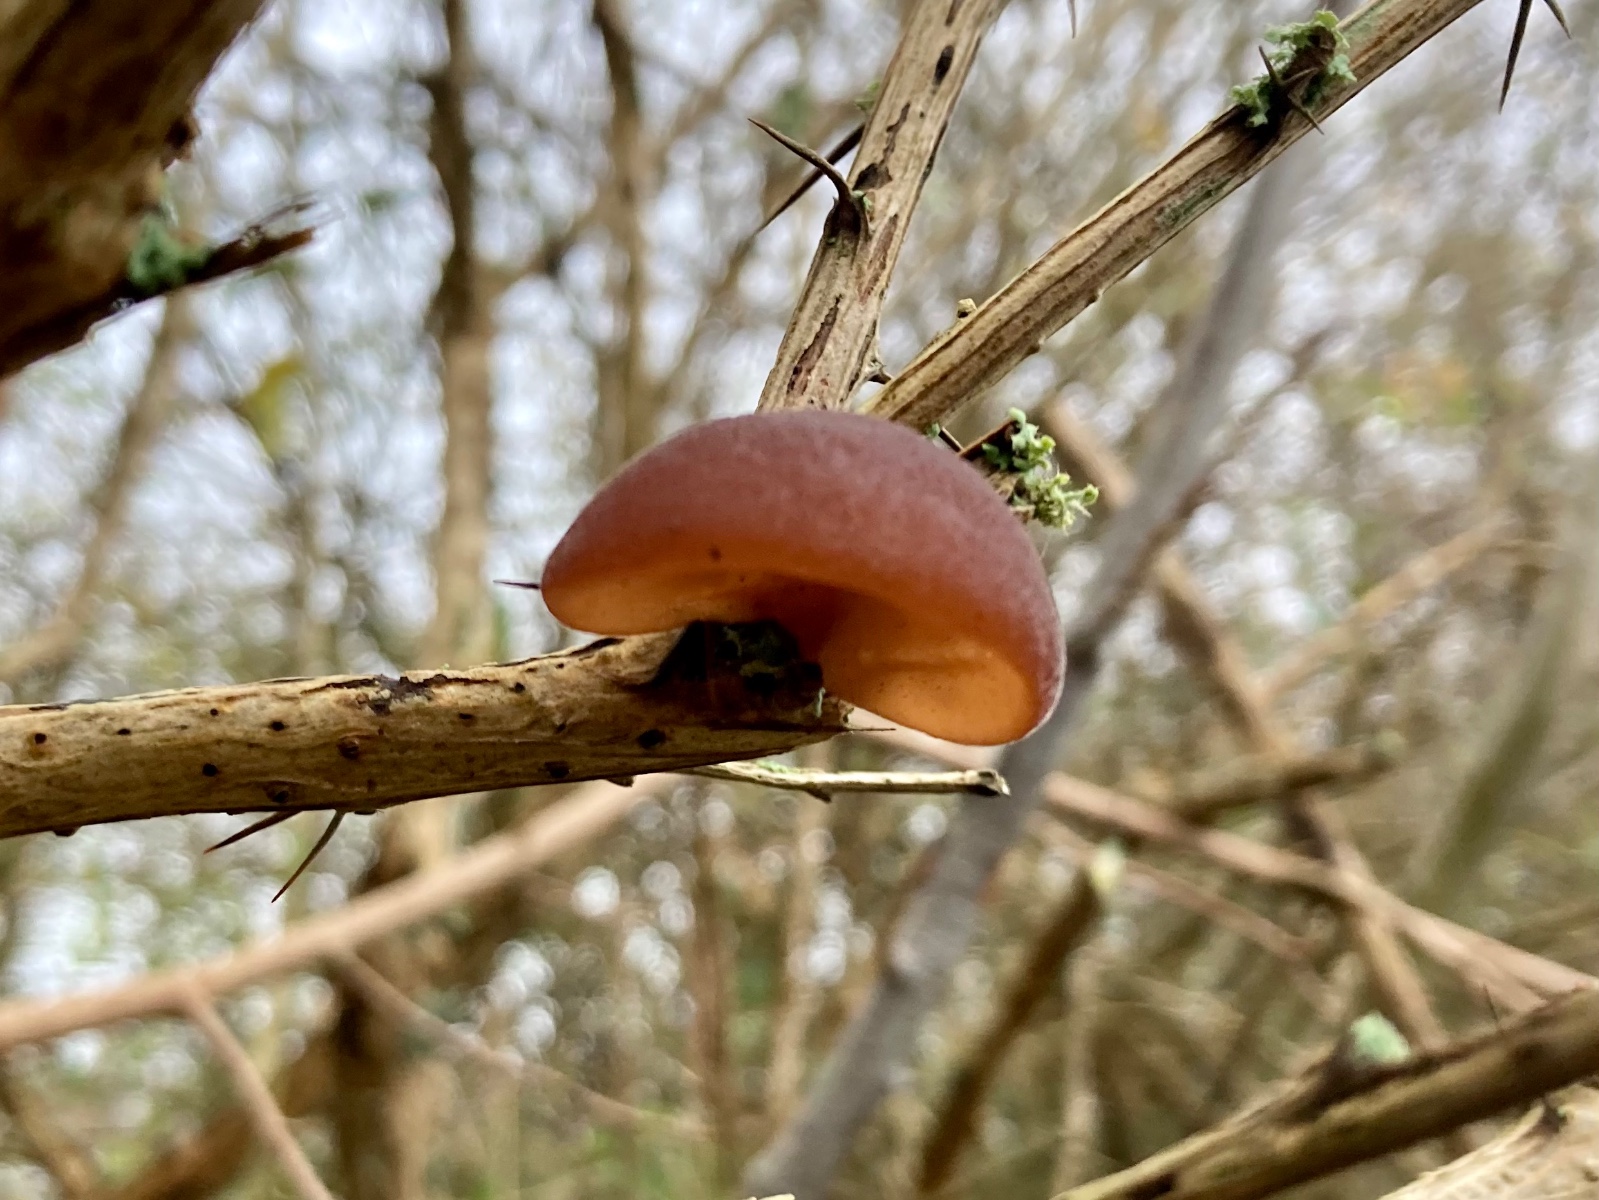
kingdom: Fungi
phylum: Basidiomycota
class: Agaricomycetes
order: Auriculariales
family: Auriculariaceae
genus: Auricularia
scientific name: Auricularia auricula-judae
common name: almindelig judasøre
